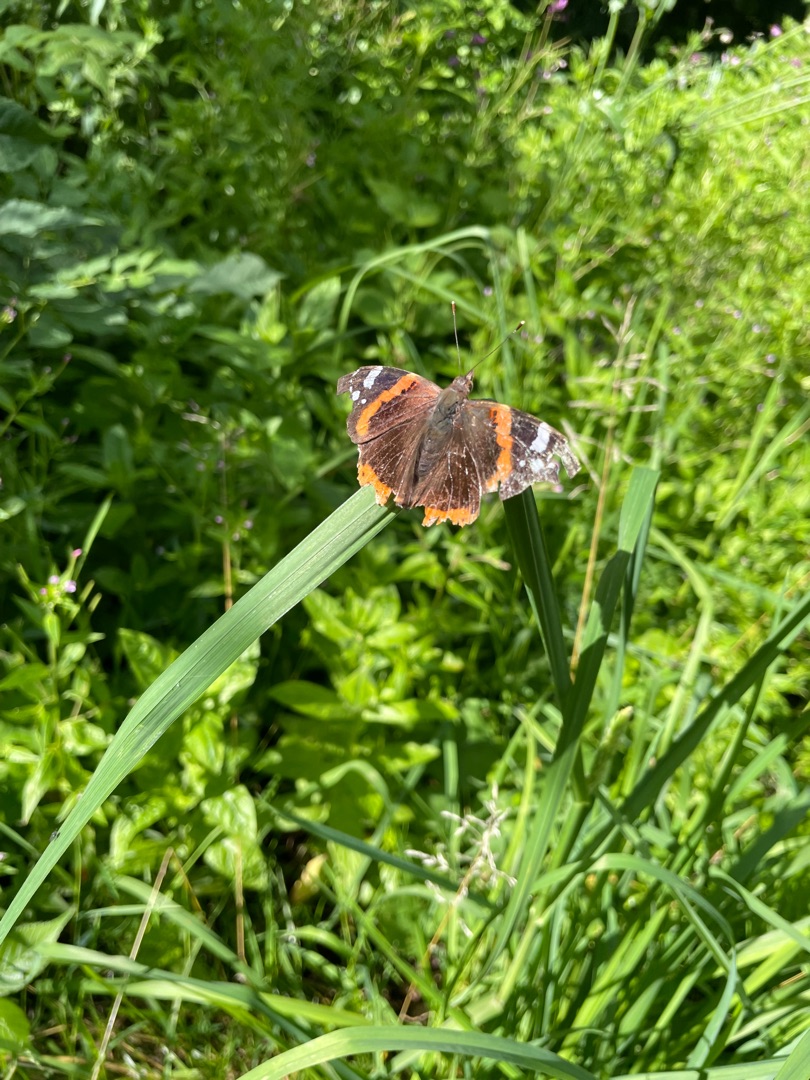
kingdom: Animalia
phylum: Arthropoda
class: Insecta
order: Lepidoptera
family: Nymphalidae
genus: Vanessa
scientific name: Vanessa atalanta
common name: Admiral
